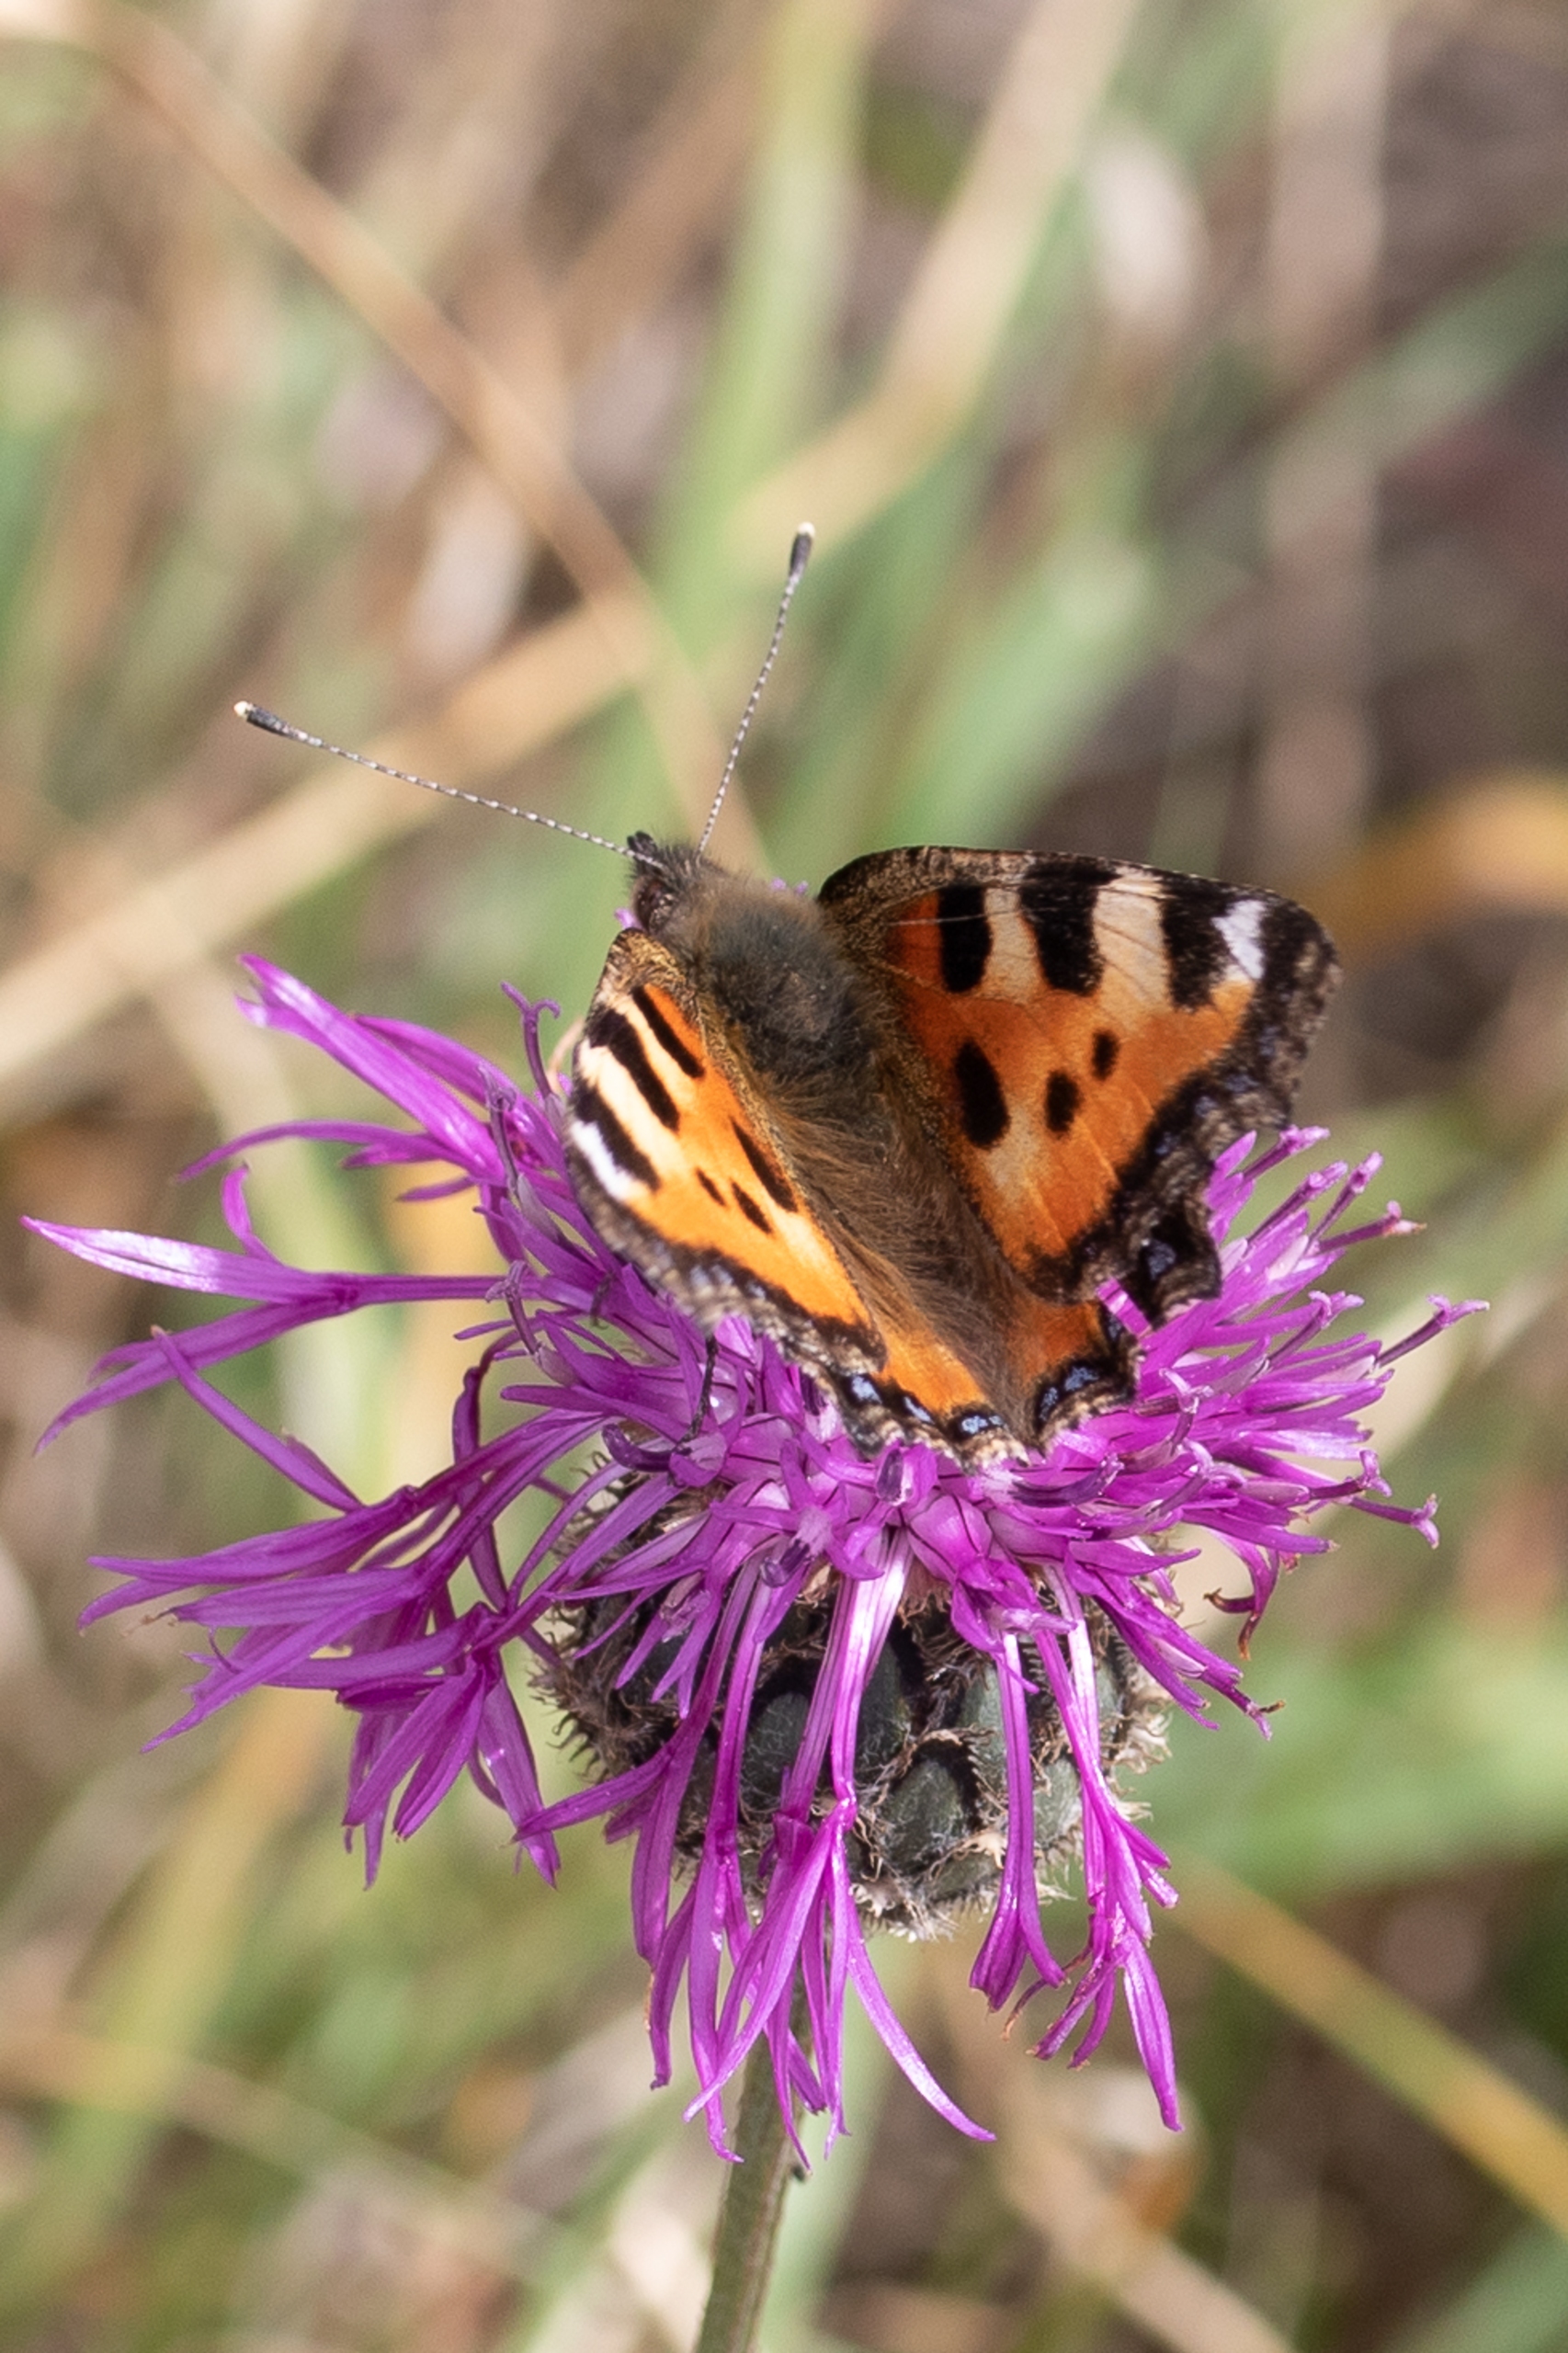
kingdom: Animalia
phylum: Arthropoda
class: Insecta
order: Lepidoptera
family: Nymphalidae
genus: Aglais
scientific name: Aglais urticae
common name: Nældens takvinge
